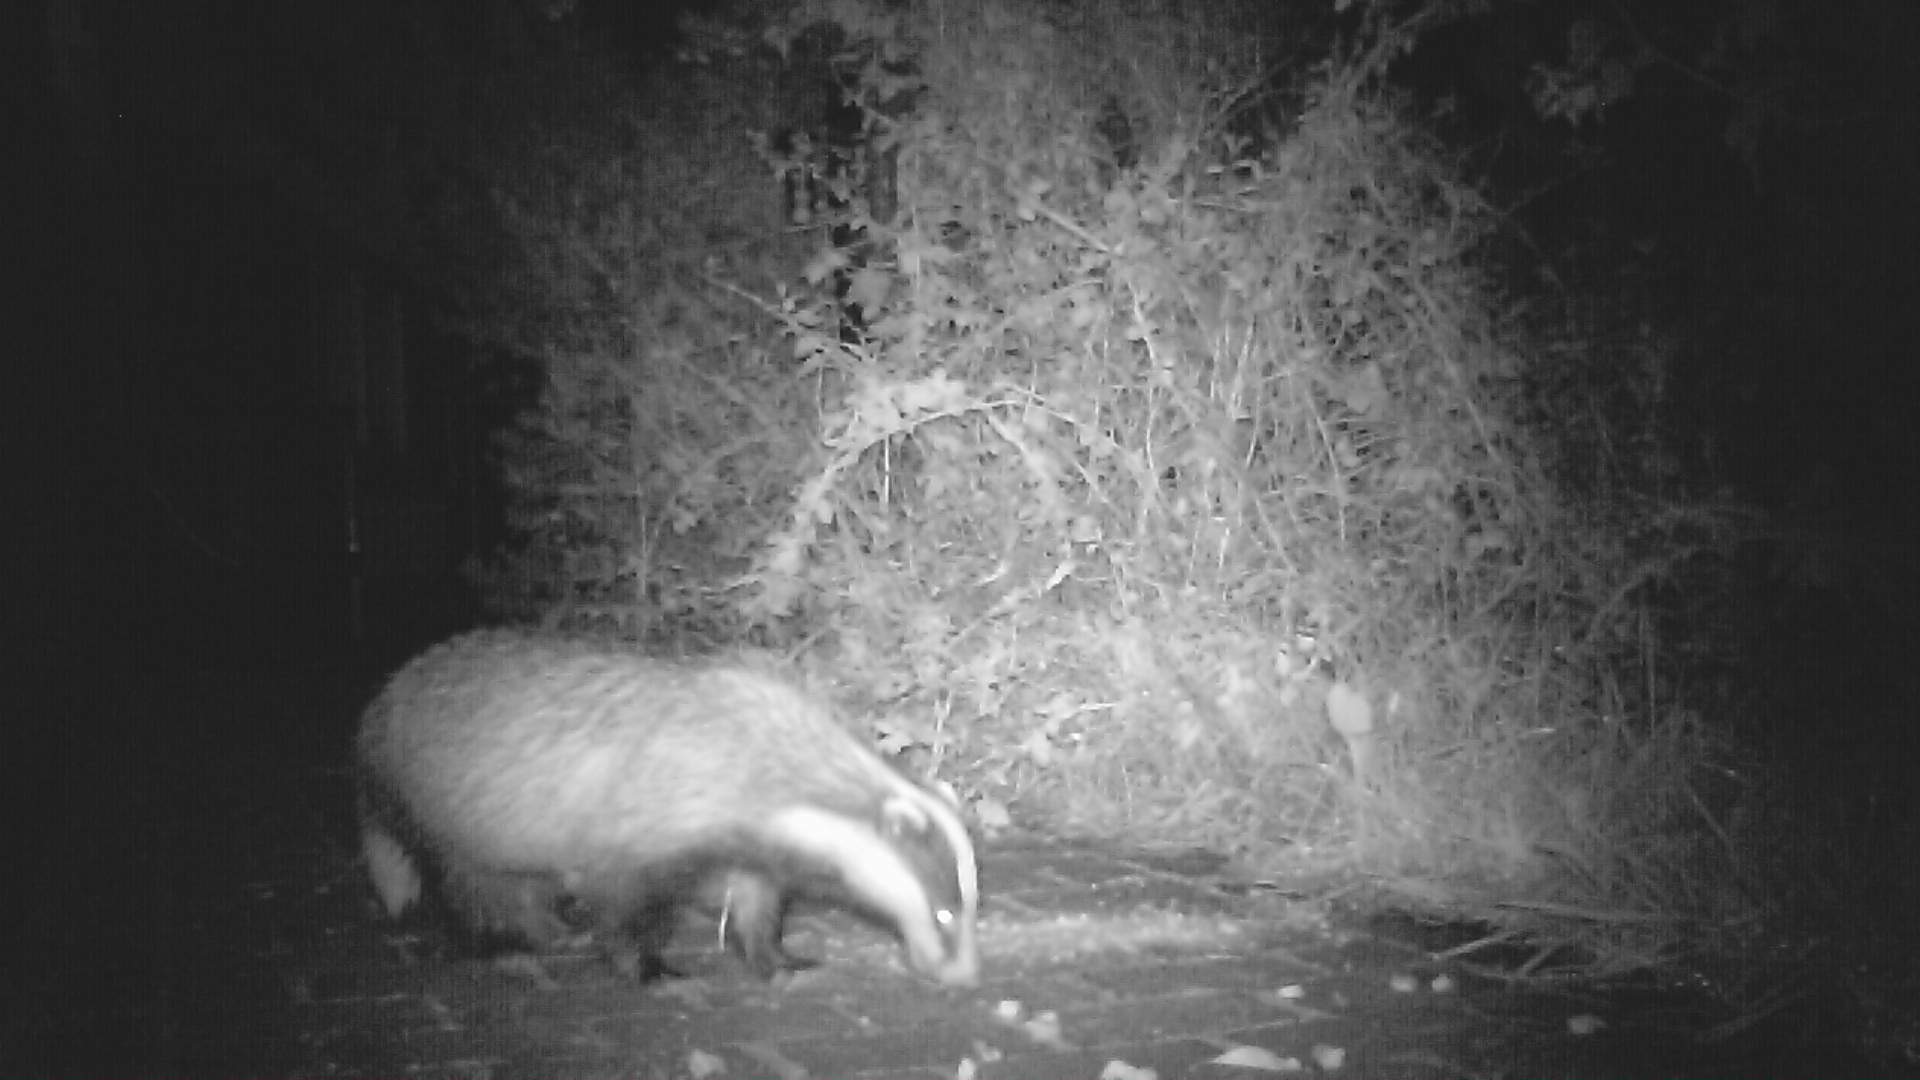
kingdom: Animalia
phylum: Chordata
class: Mammalia
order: Carnivora
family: Mustelidae
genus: Meles
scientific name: Meles meles
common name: Grævling
